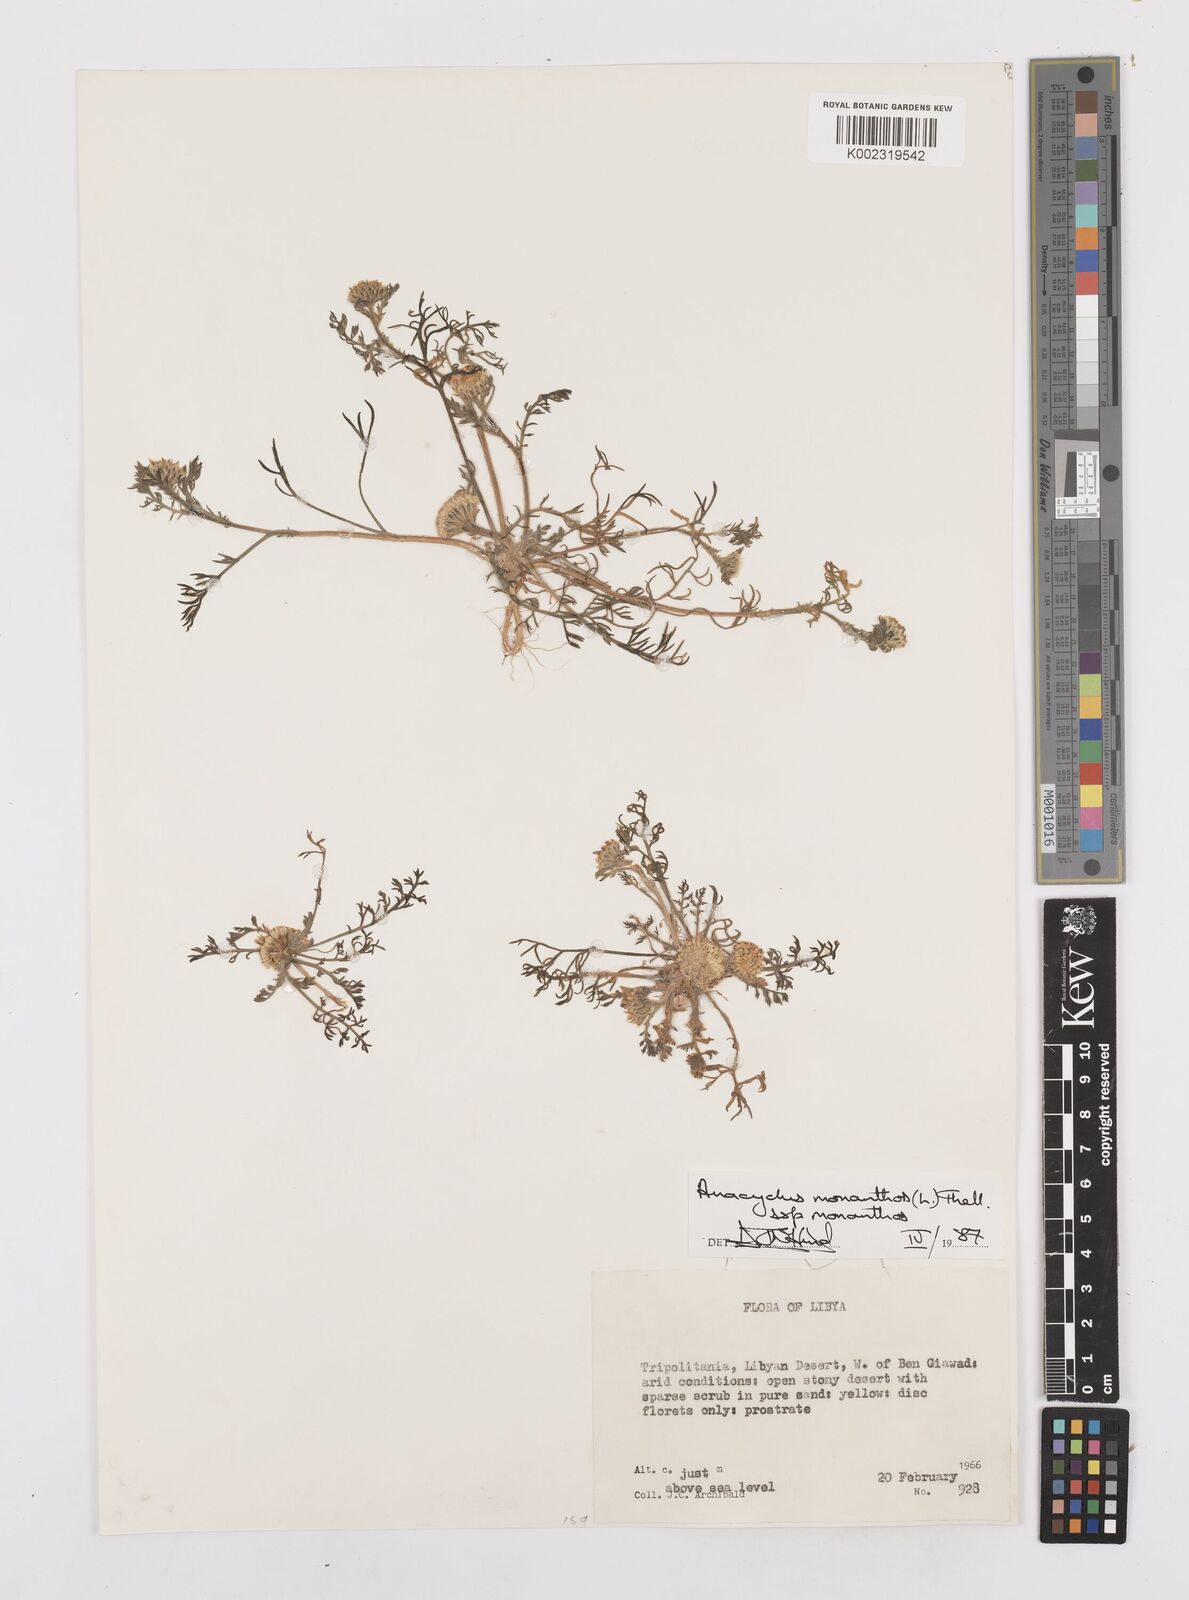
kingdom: Plantae
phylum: Tracheophyta
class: Magnoliopsida
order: Asterales
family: Asteraceae
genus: Anacyclus
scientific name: Anacyclus monanthos
